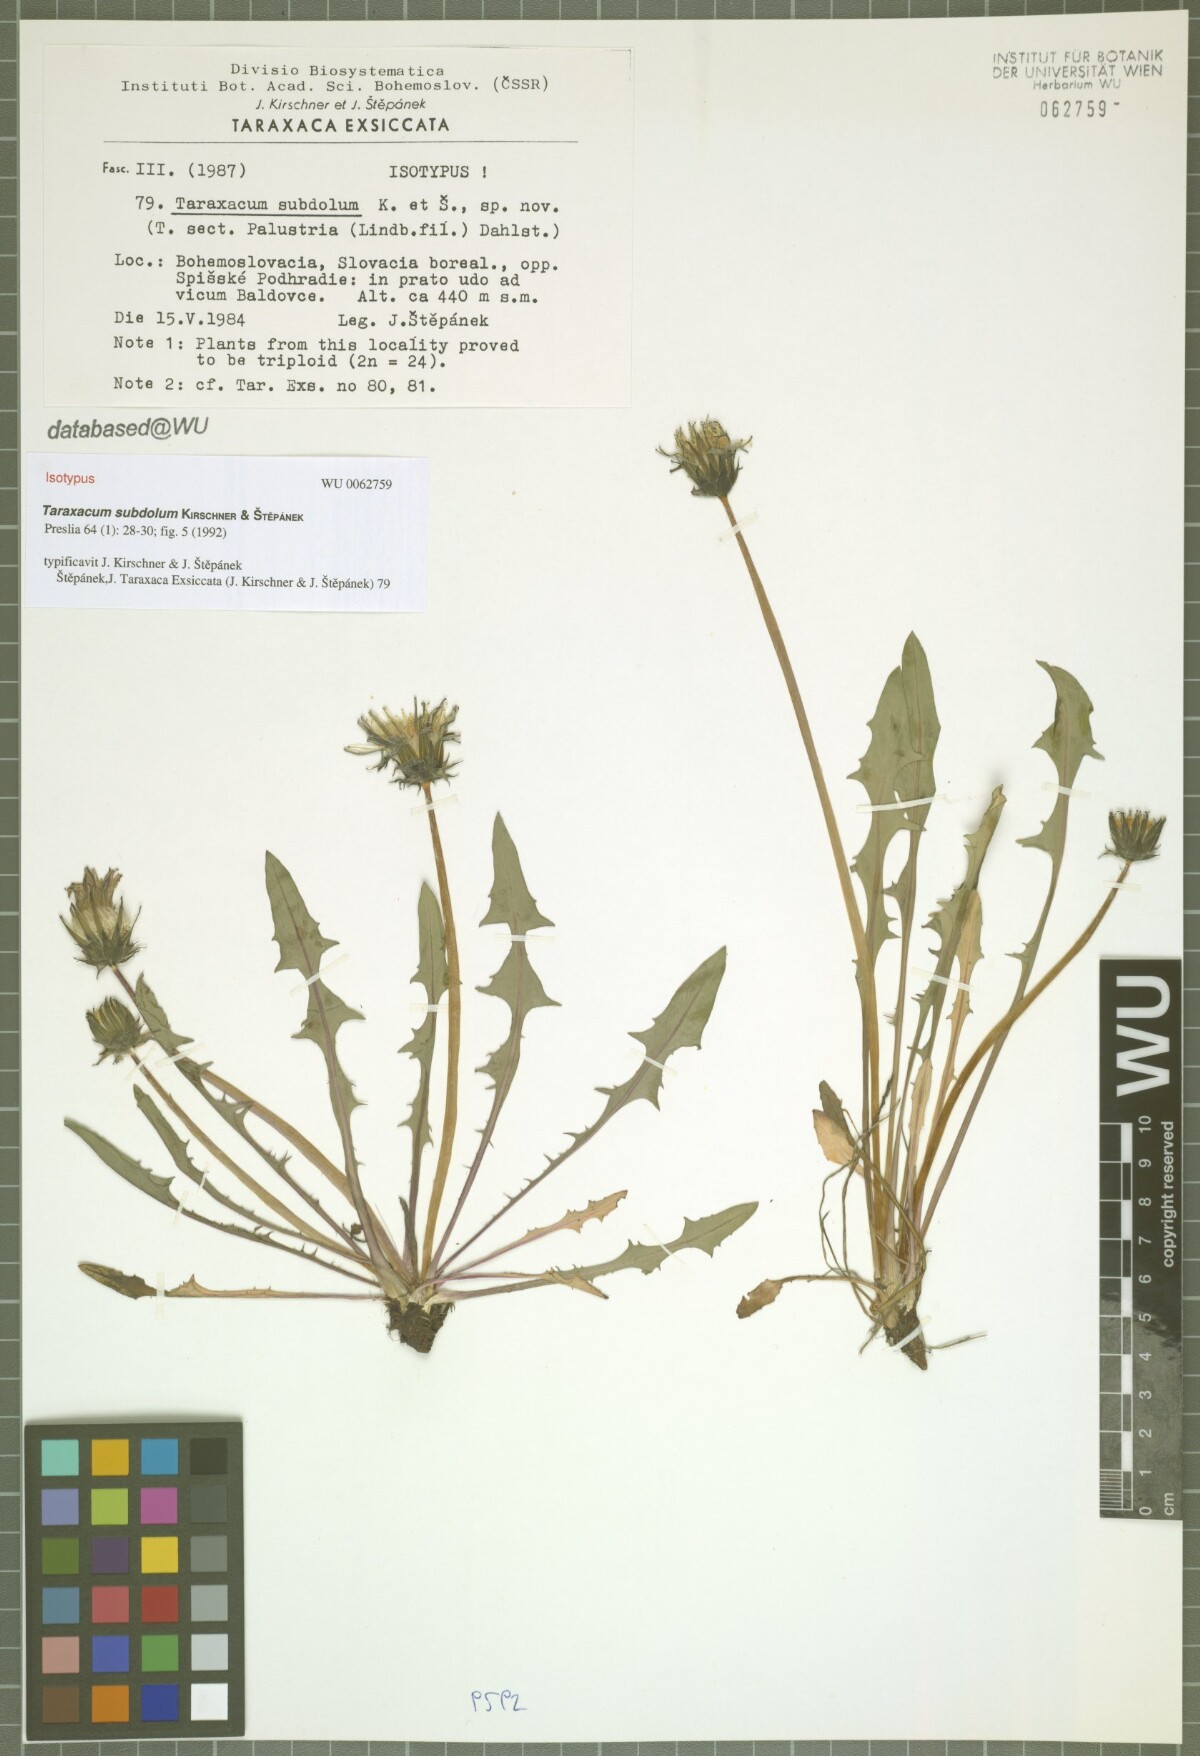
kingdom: Plantae
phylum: Tracheophyta
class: Magnoliopsida
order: Asterales
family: Asteraceae
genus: Taraxacum
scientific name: Taraxacum subdolum
